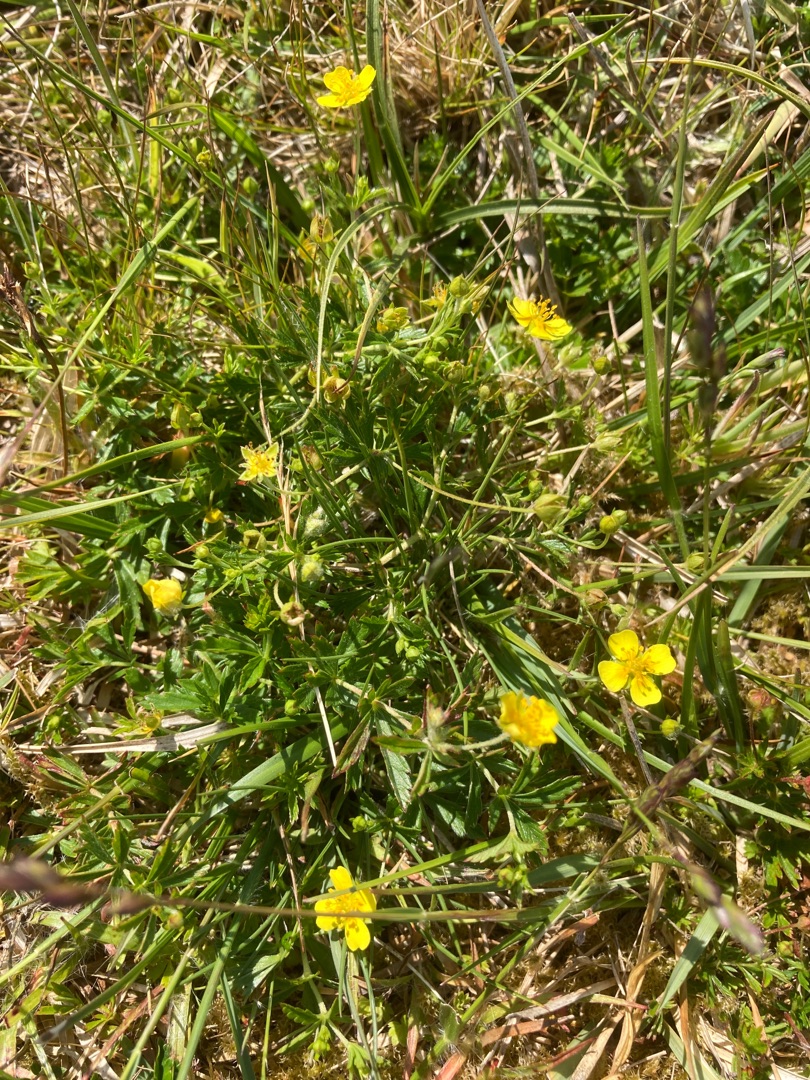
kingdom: Plantae
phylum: Tracheophyta
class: Magnoliopsida
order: Rosales
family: Rosaceae
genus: Potentilla
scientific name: Potentilla erecta
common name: Tormentil
